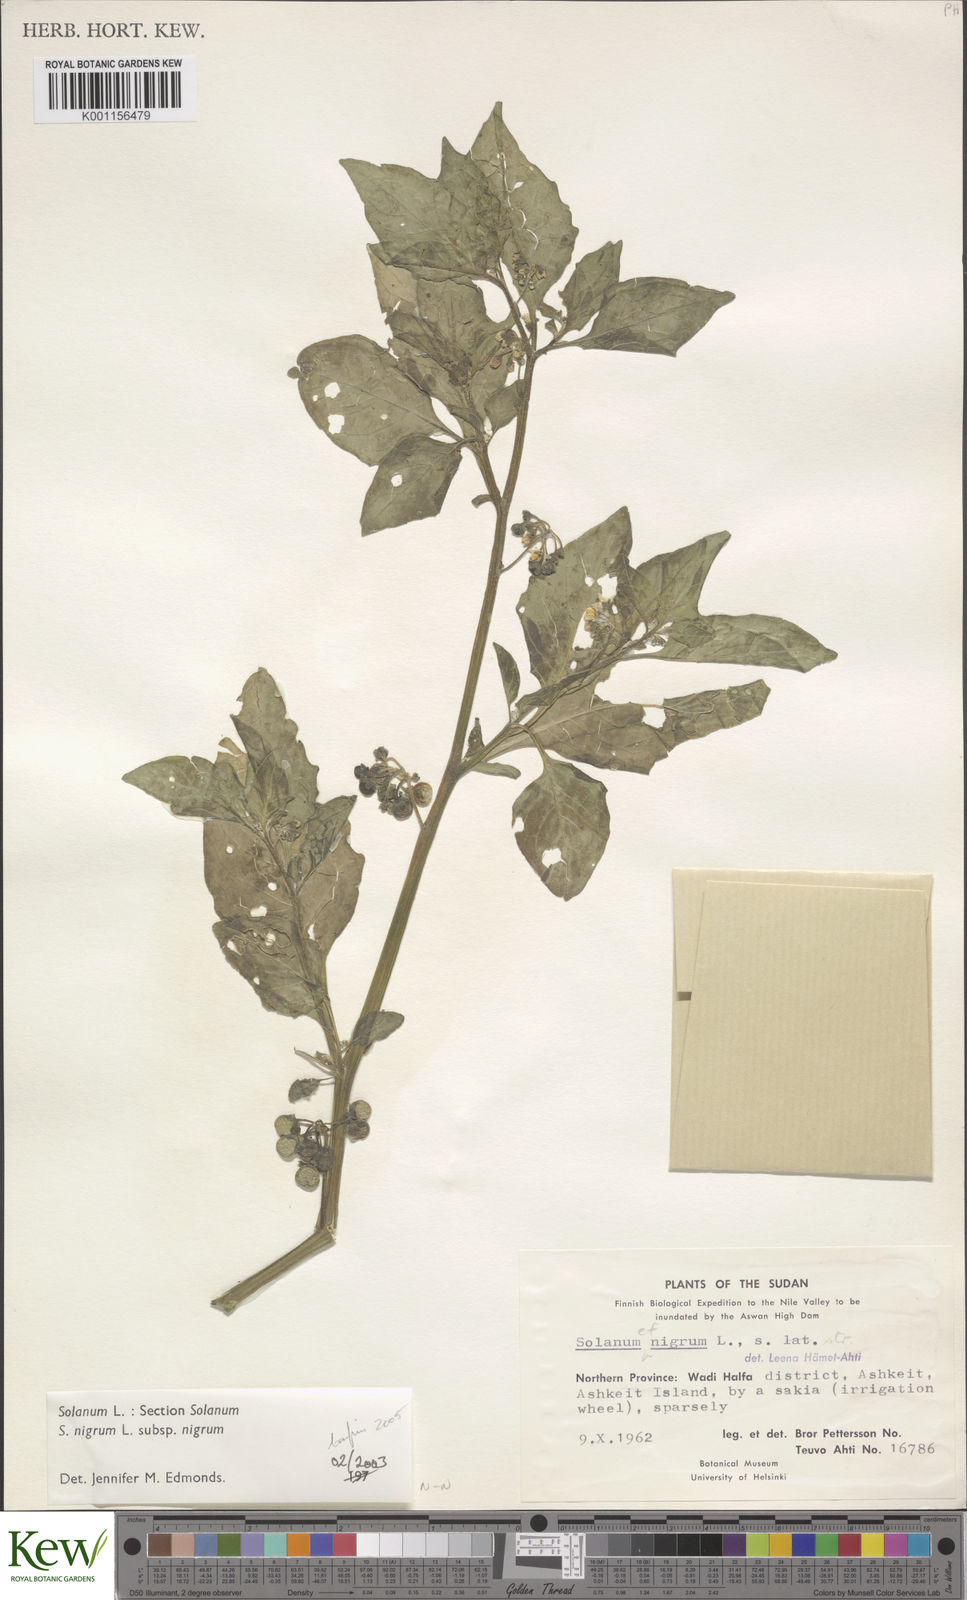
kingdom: Plantae
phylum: Tracheophyta
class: Magnoliopsida
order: Solanales
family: Solanaceae
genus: Solanum
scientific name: Solanum nigrum
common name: Black nightshade
